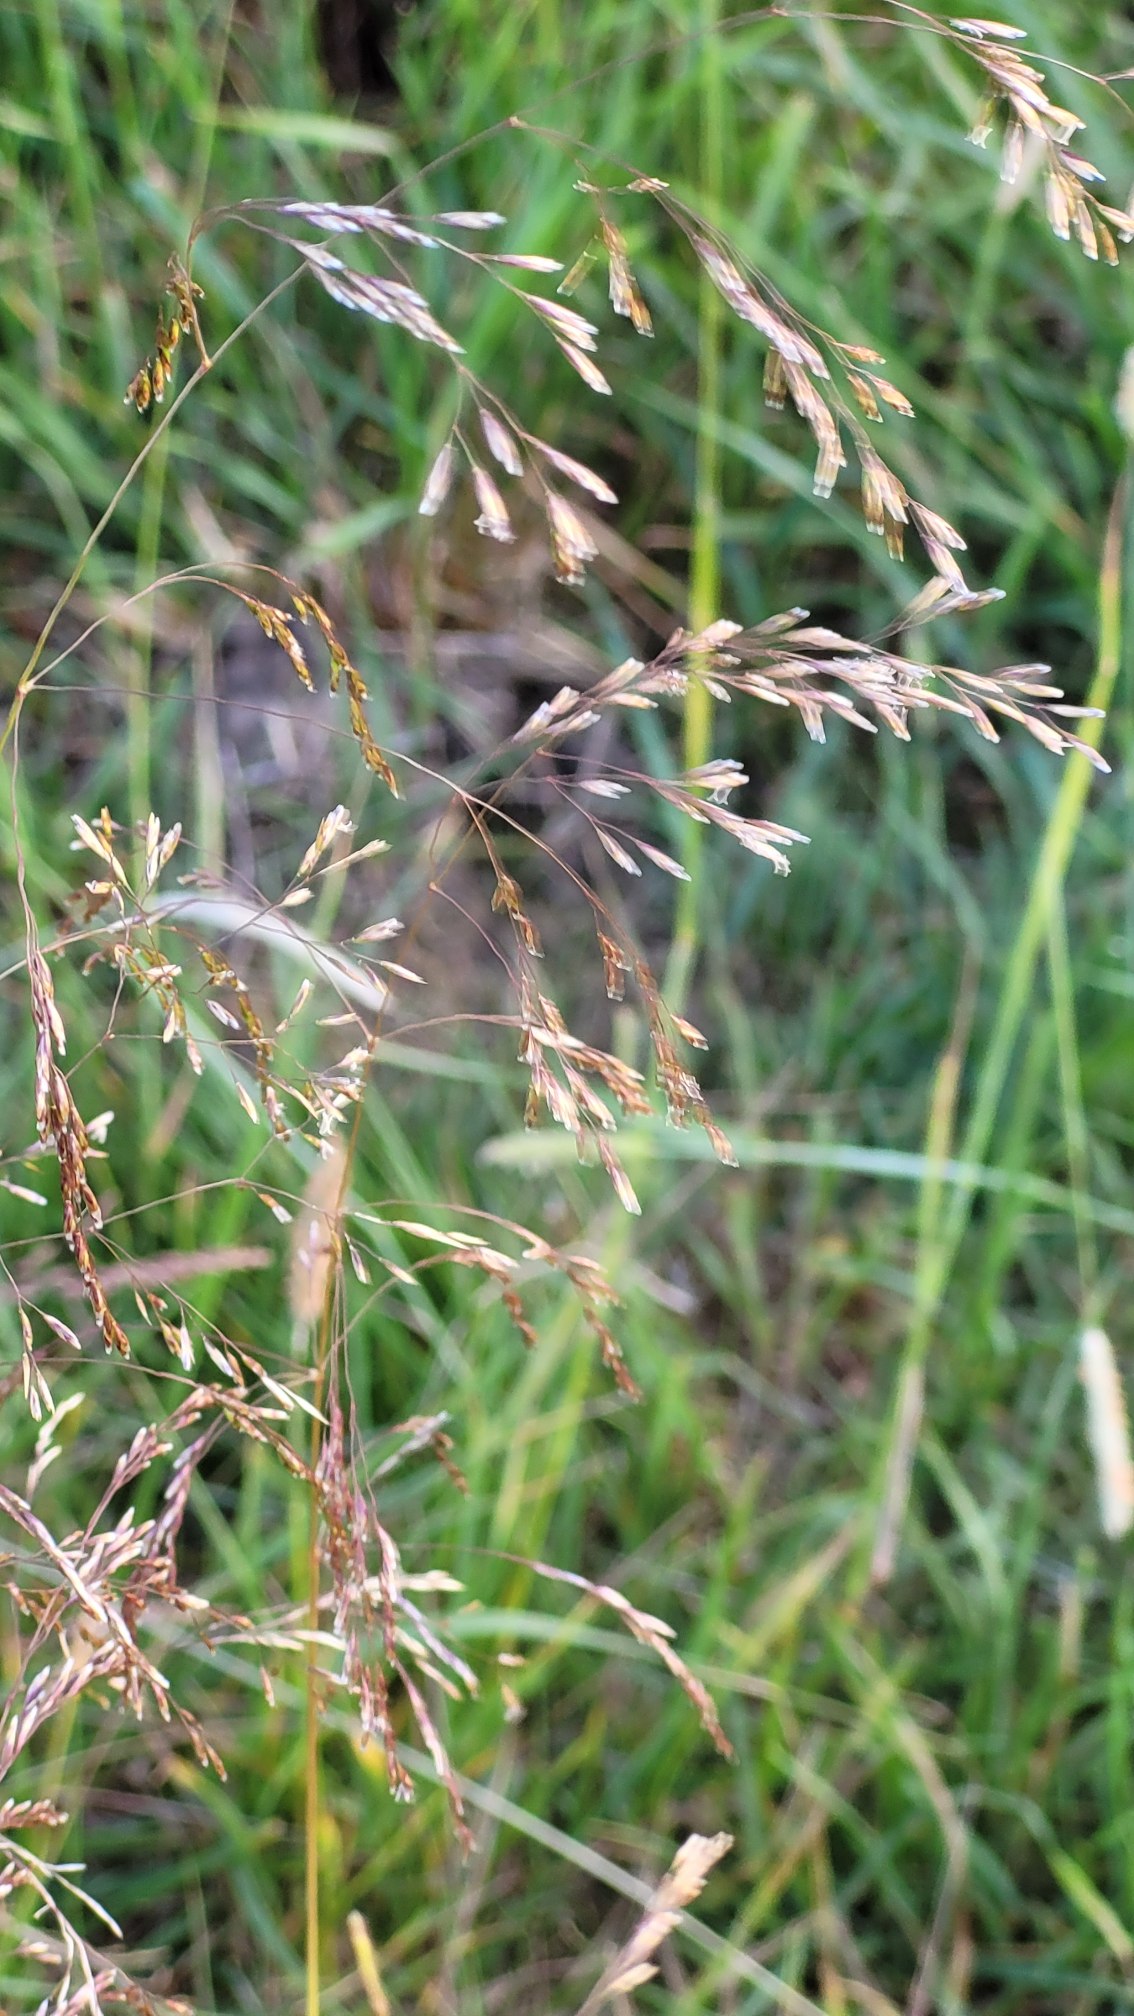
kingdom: Plantae
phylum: Tracheophyta
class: Liliopsida
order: Poales
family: Poaceae
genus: Deschampsia
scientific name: Deschampsia cespitosa
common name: Mose-bunke
